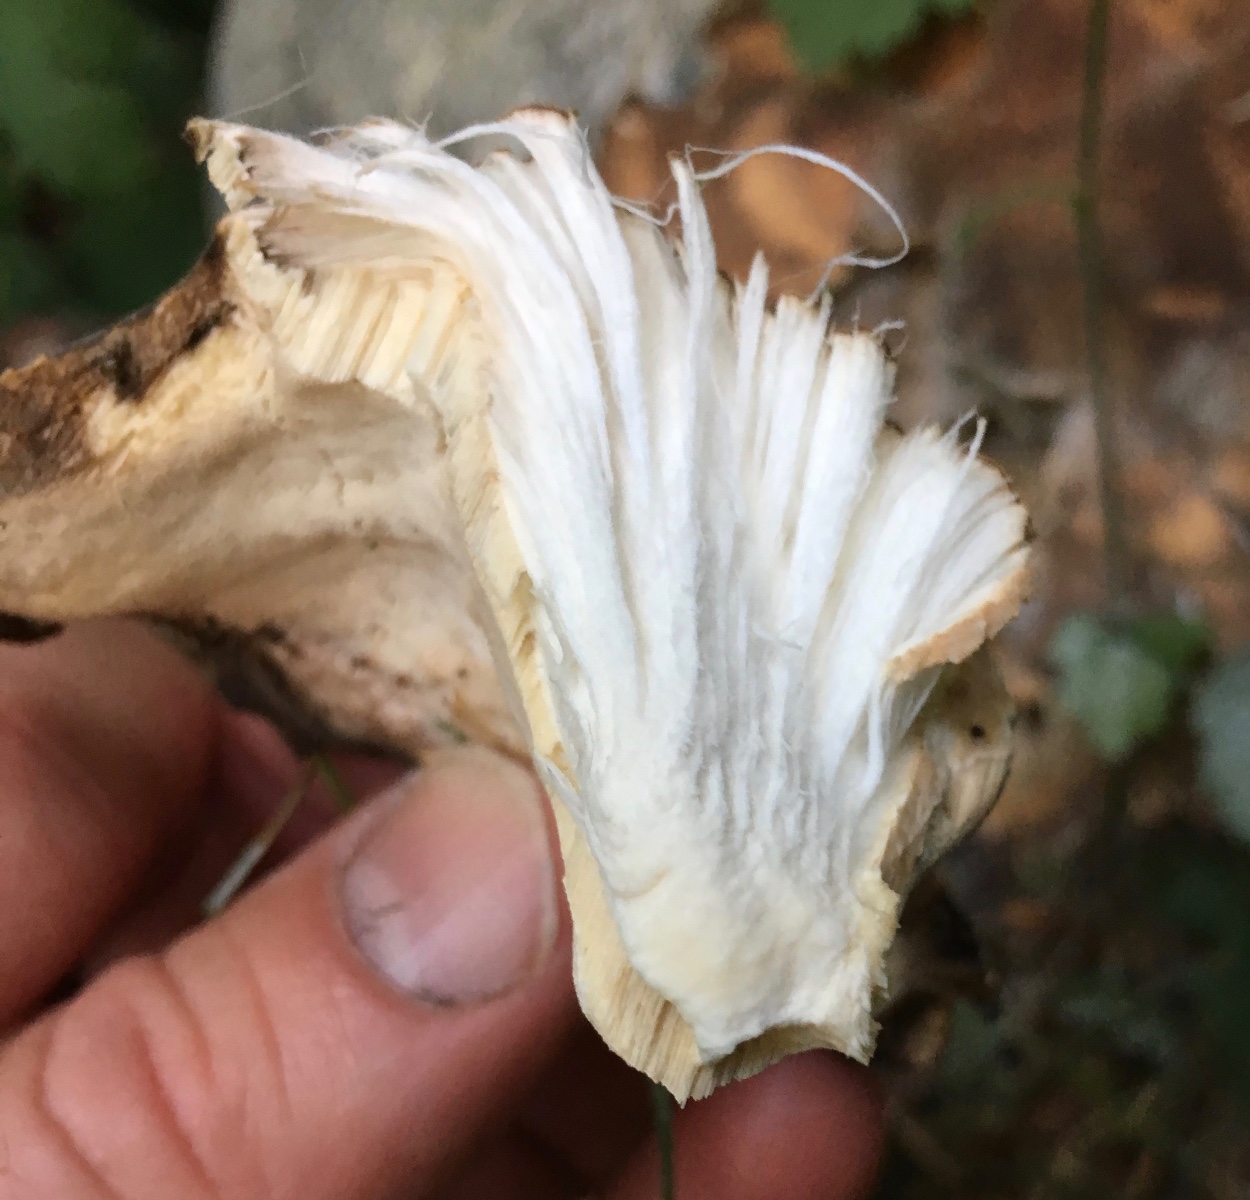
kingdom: Fungi
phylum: Basidiomycota
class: Agaricomycetes
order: Polyporales
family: Meripilaceae
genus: Meripilus
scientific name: Meripilus giganteus
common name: kæmpeporesvamp
